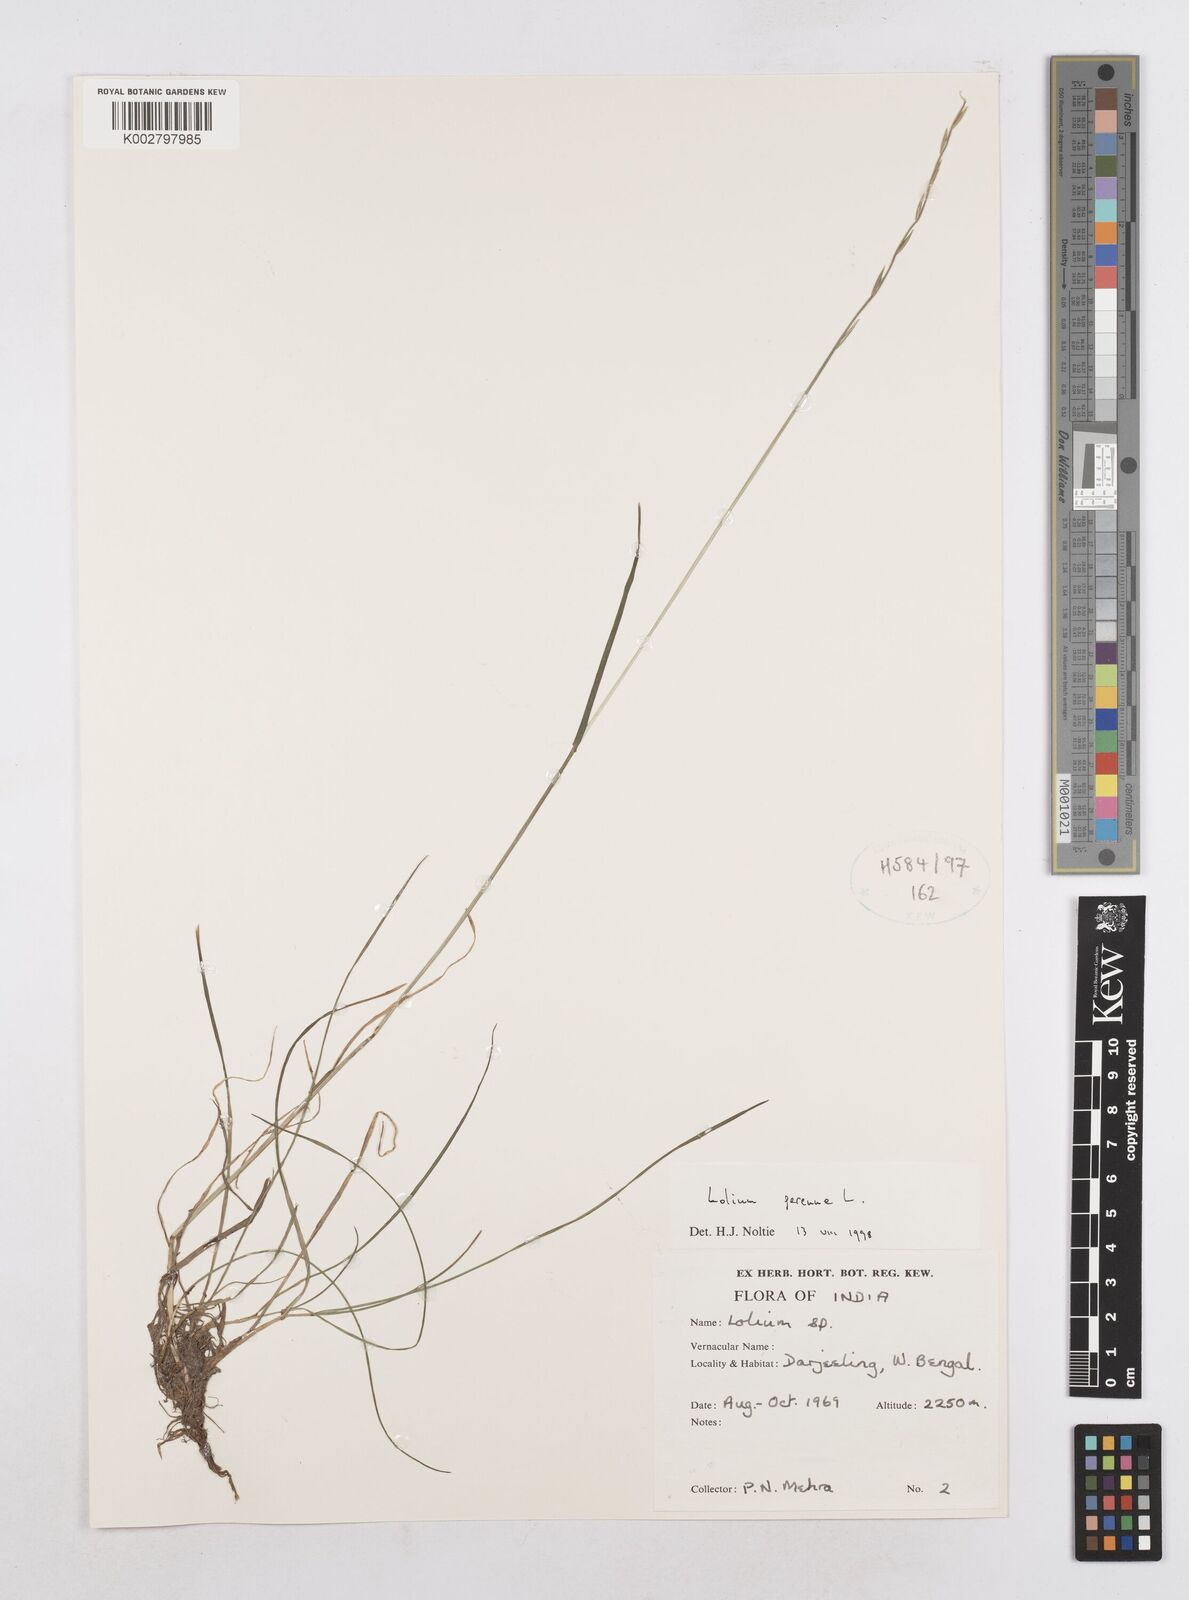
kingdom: Plantae
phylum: Tracheophyta
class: Liliopsida
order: Poales
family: Poaceae
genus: Lolium
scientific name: Lolium perenne
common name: Perennial ryegrass
